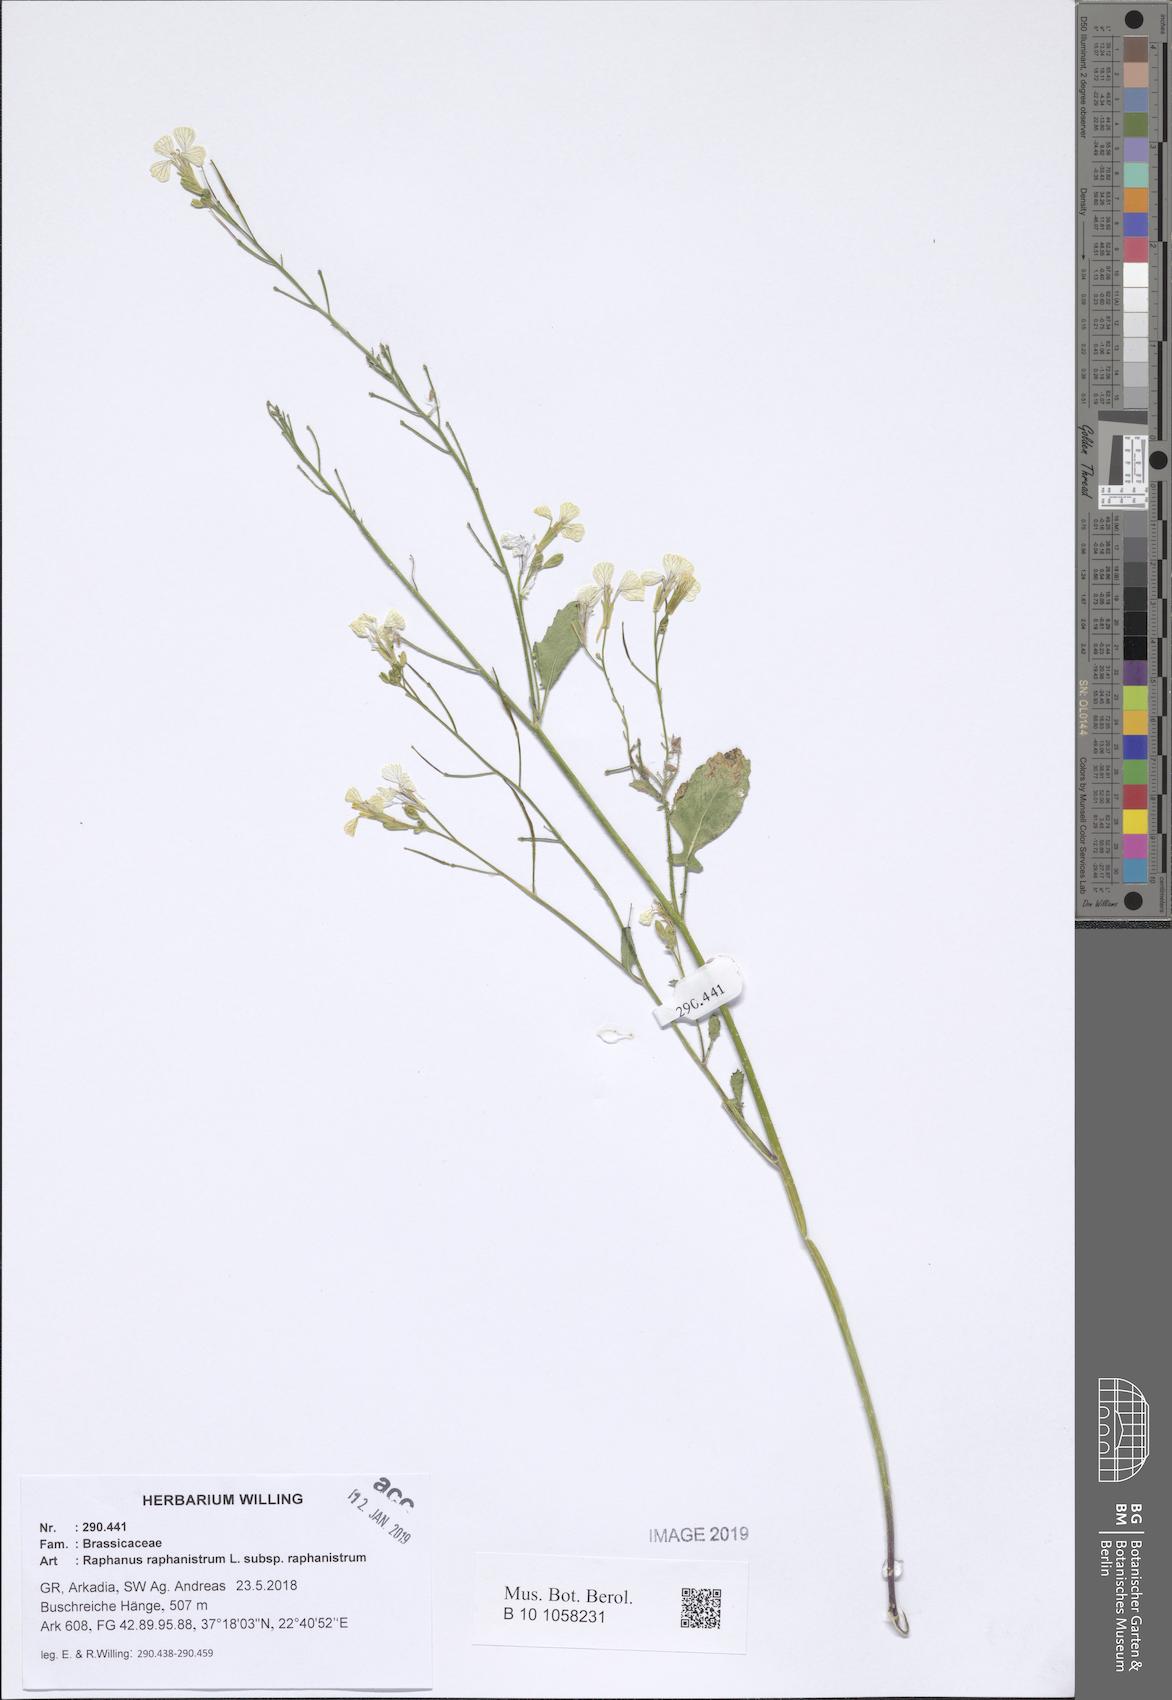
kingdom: Plantae
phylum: Tracheophyta
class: Magnoliopsida
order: Brassicales
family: Brassicaceae
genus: Raphanus
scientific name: Raphanus raphanistrum
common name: Wild radish
